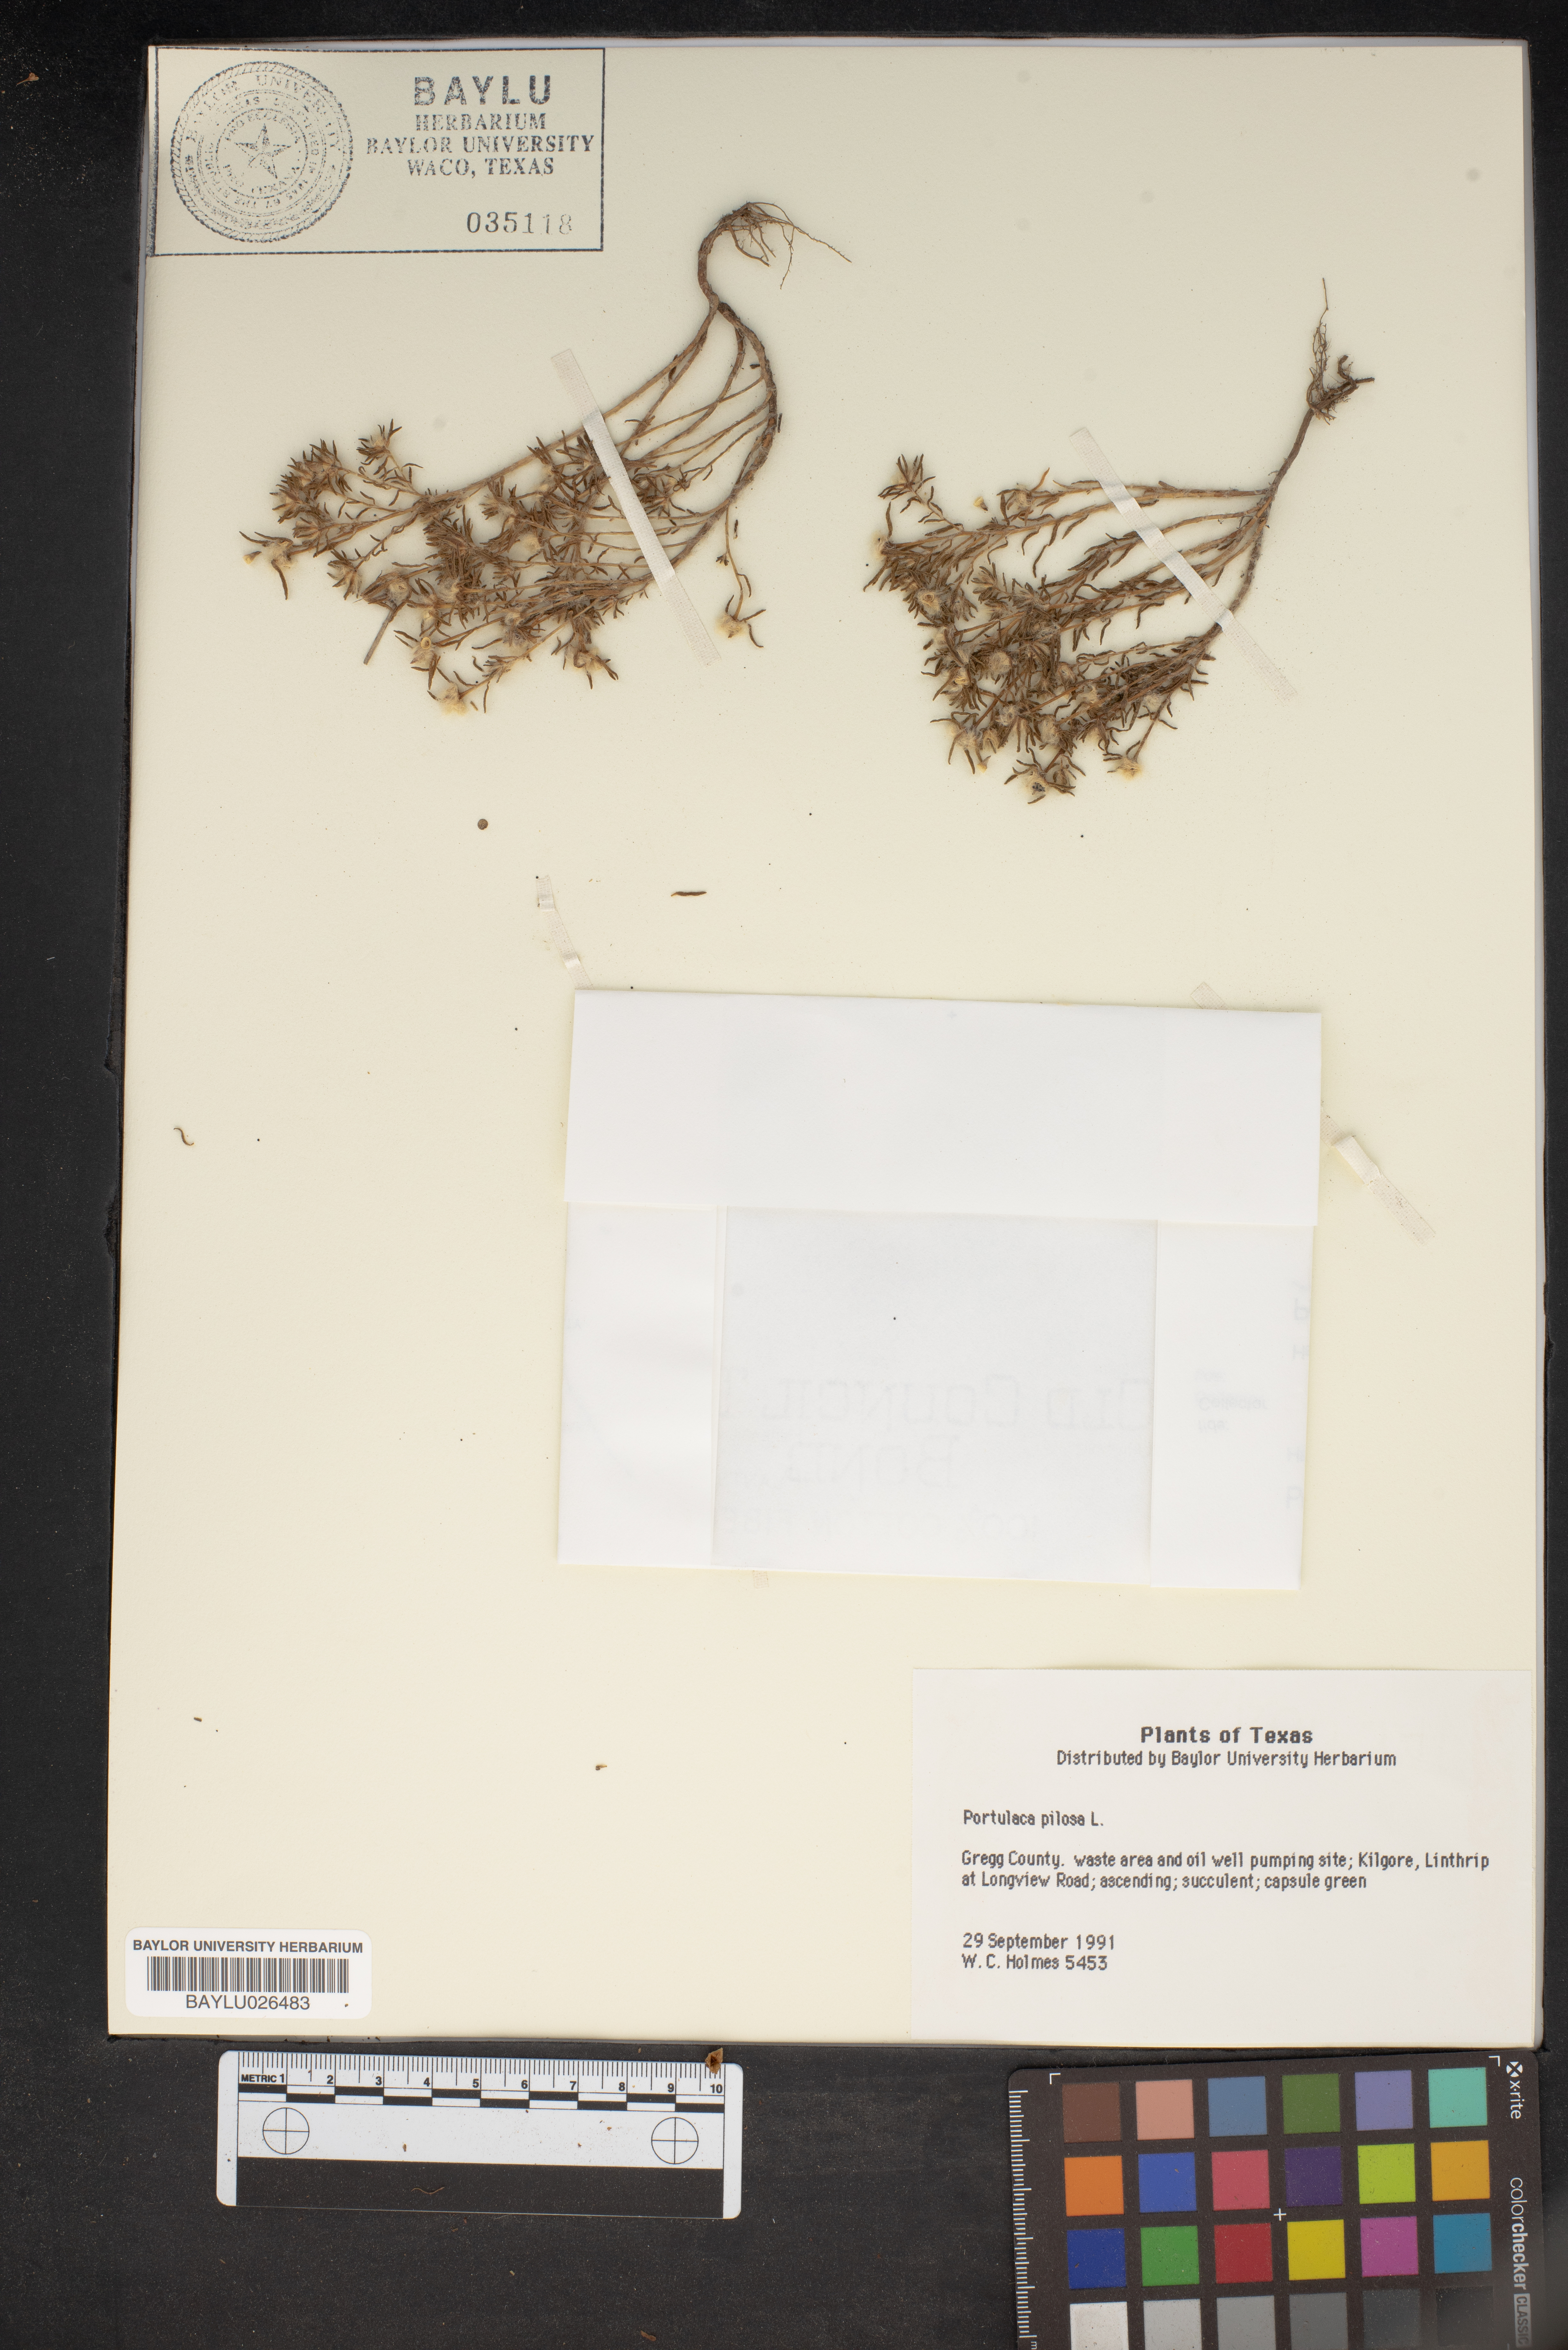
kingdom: Plantae
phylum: Tracheophyta
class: Magnoliopsida
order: Caryophyllales
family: Portulacaceae
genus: Portulaca
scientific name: Portulaca pilosa
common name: Kiss me quick
